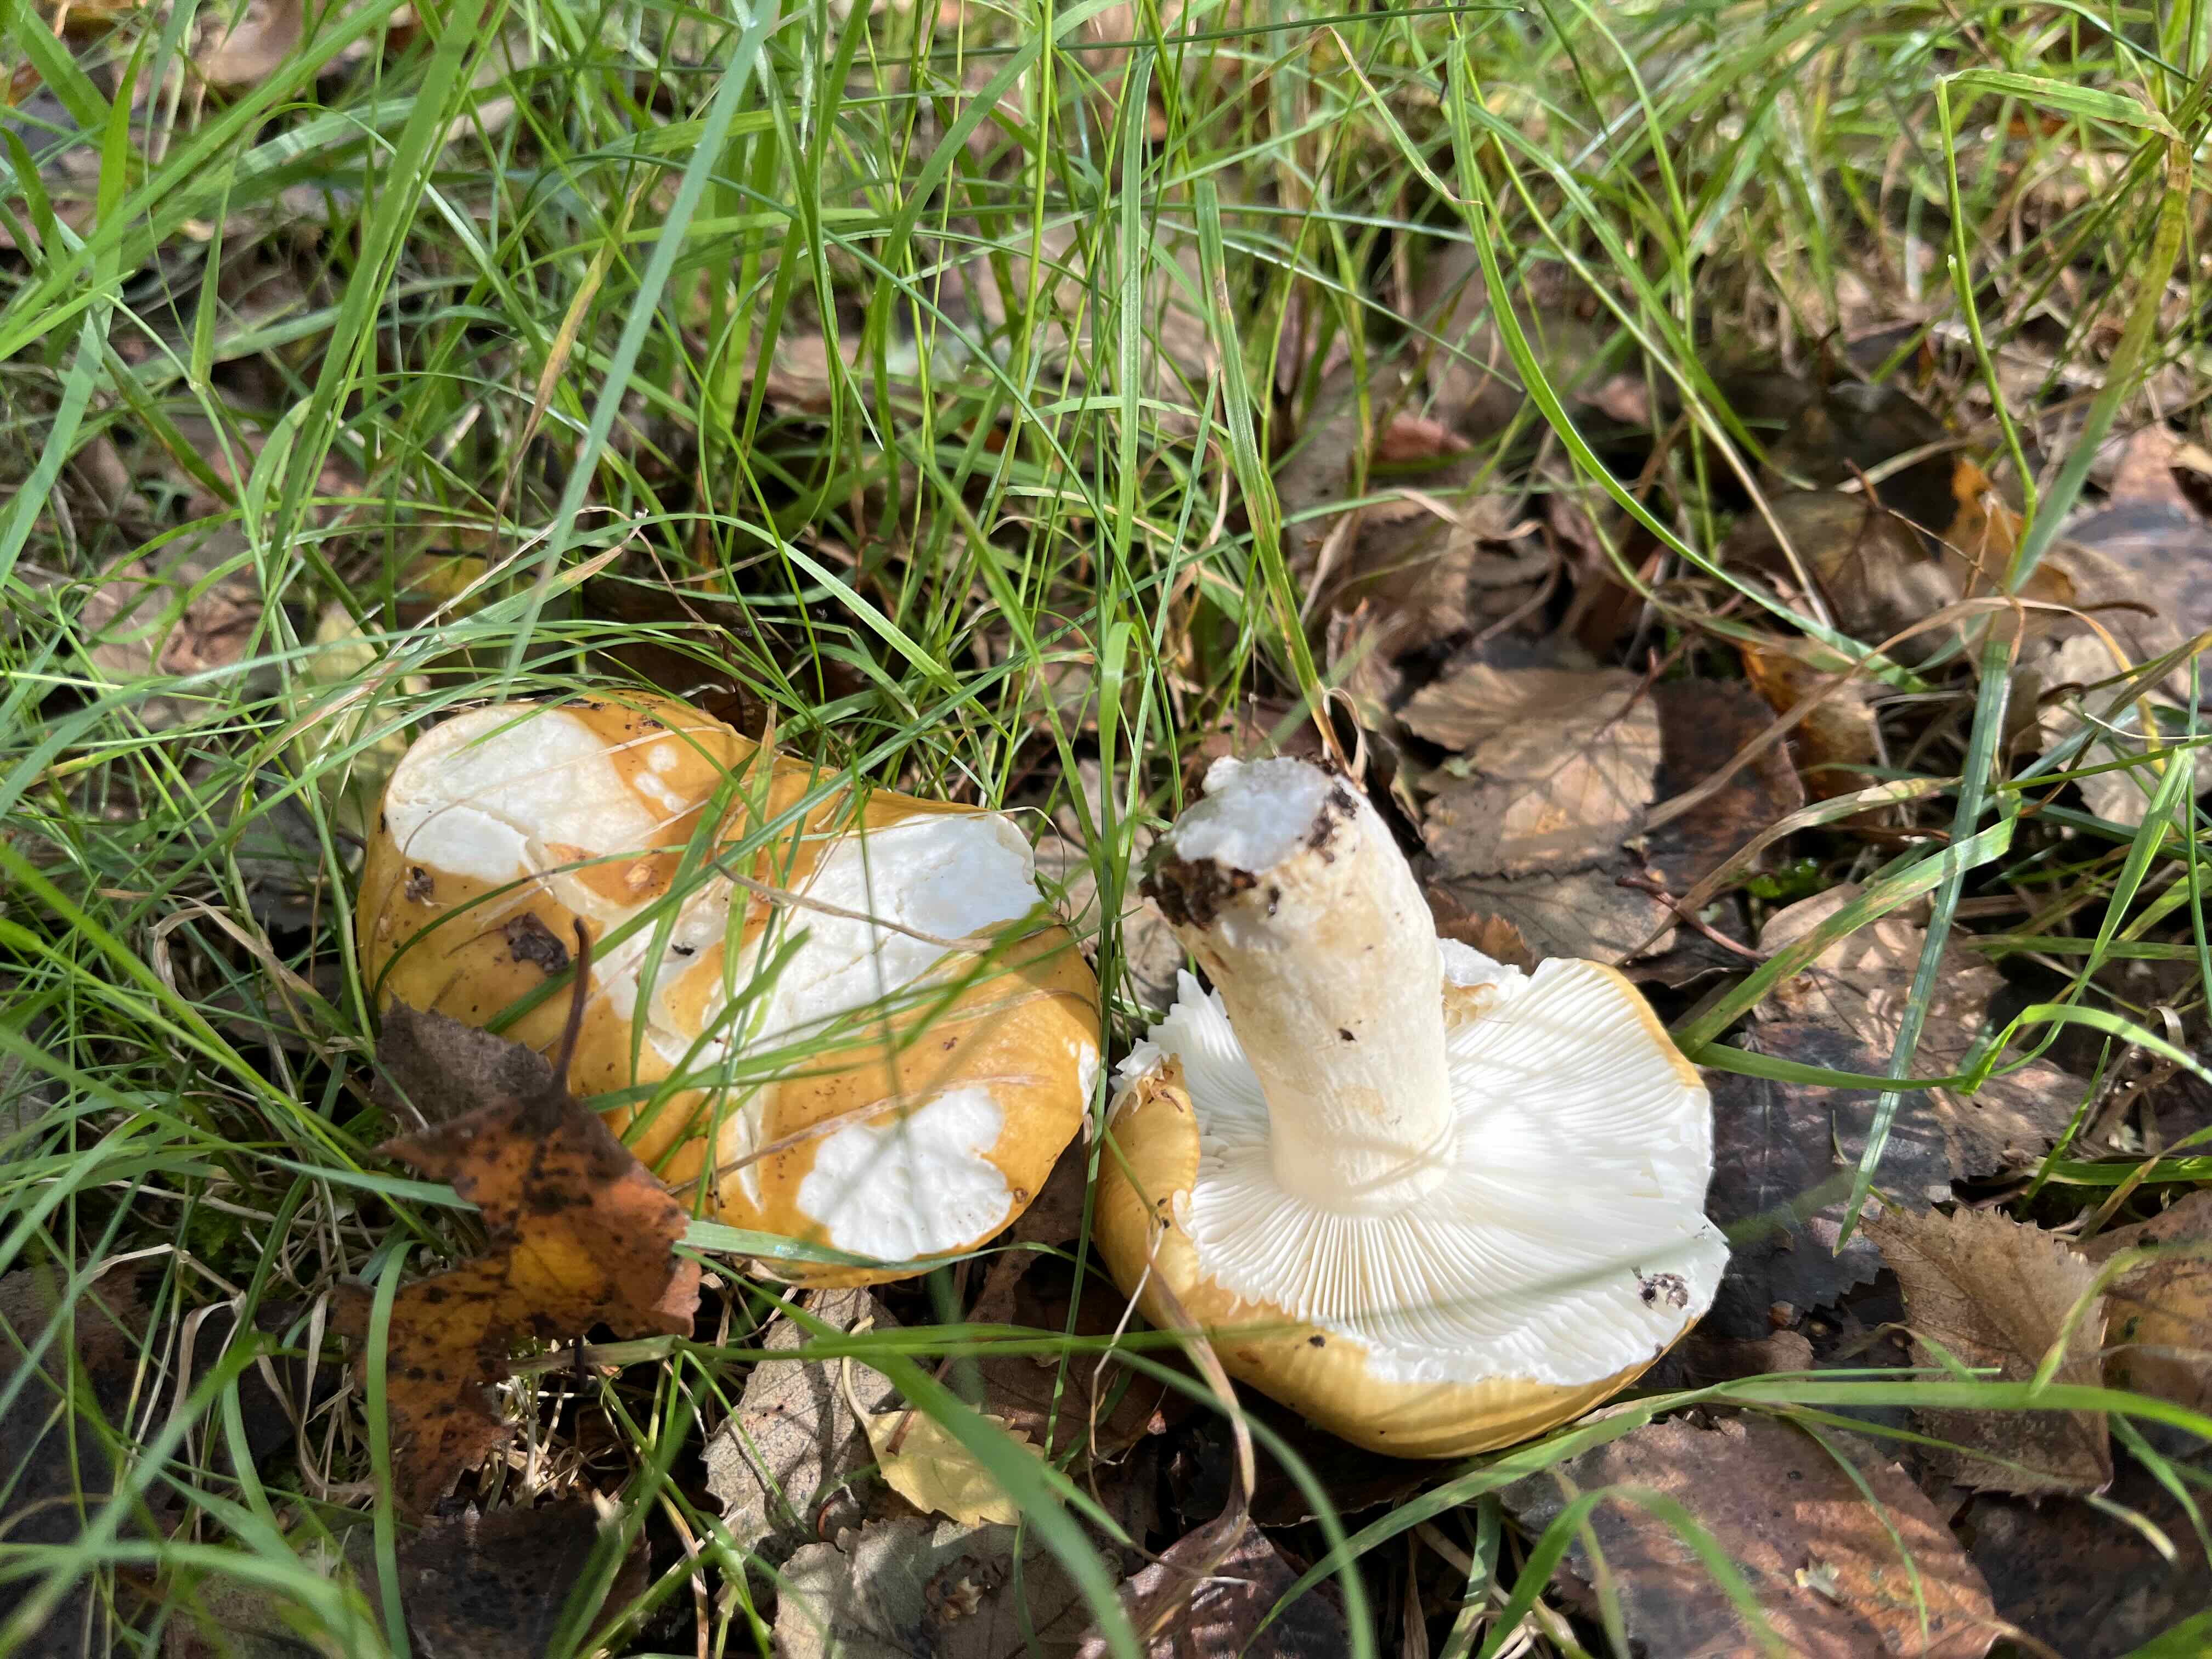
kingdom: Fungi
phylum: Basidiomycota
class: Agaricomycetes
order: Russulales
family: Russulaceae
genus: Russula
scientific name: Russula ochroleuca
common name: okkergul skørhat
